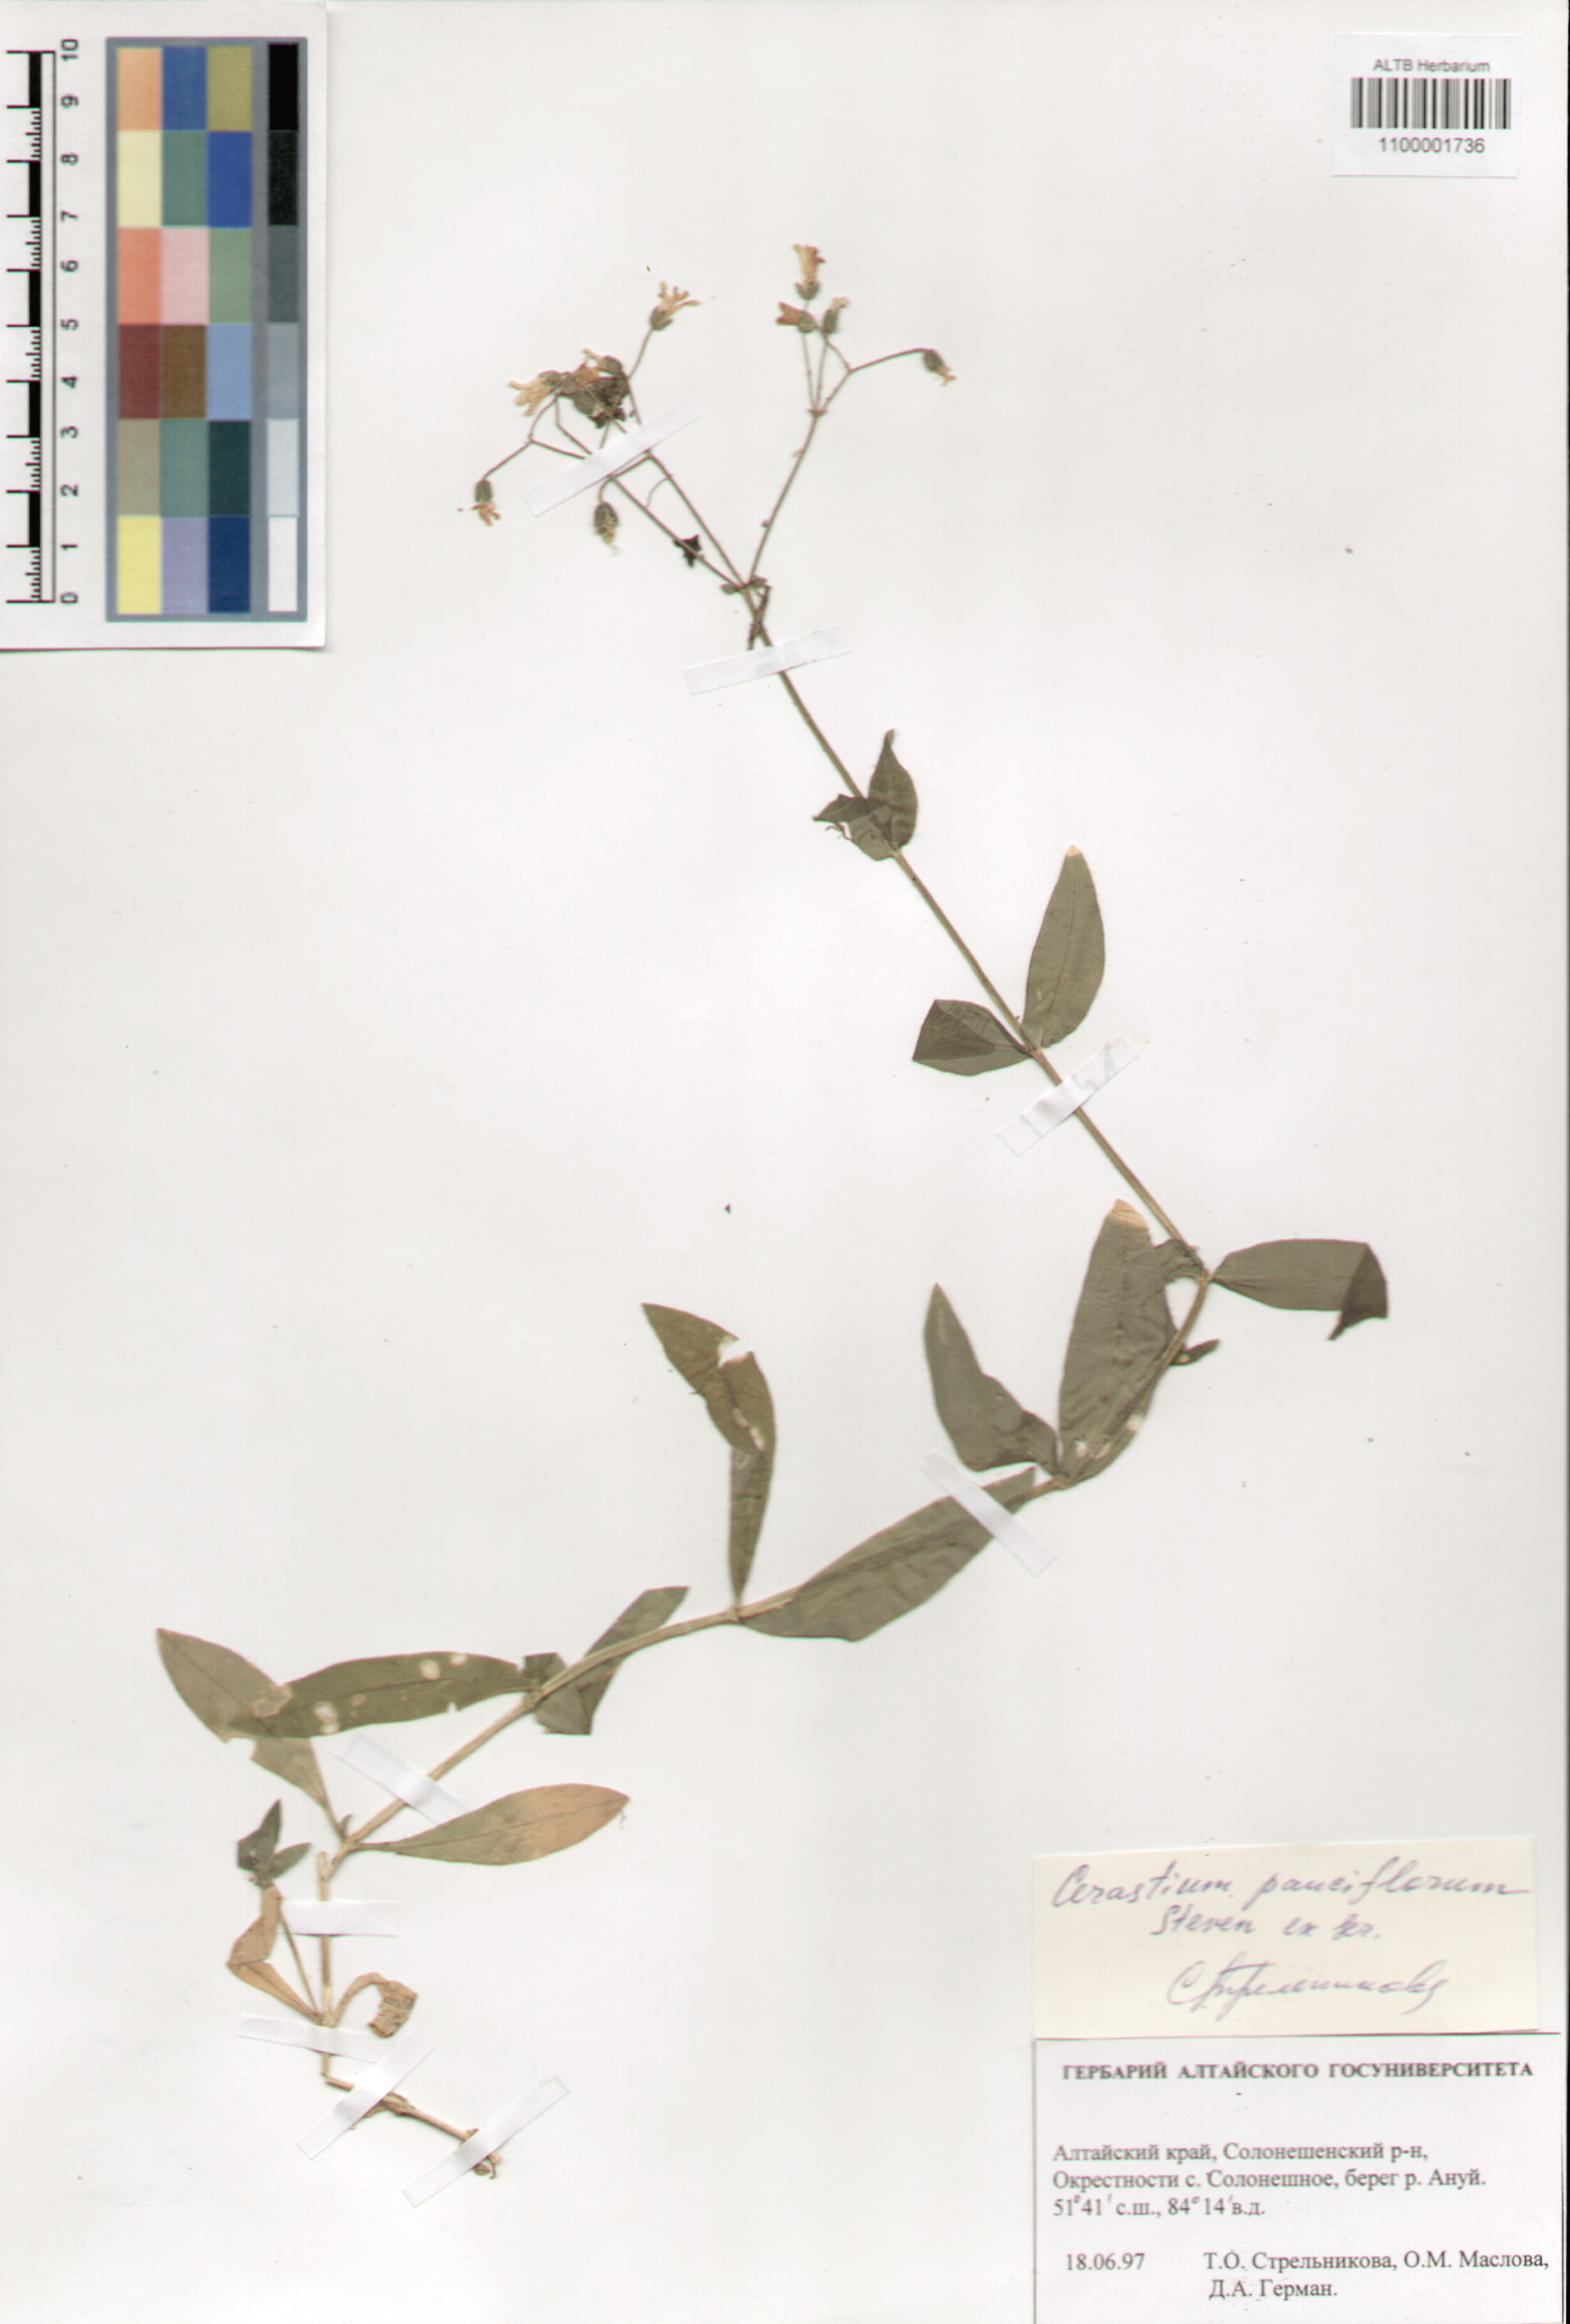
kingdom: Plantae
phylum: Tracheophyta
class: Magnoliopsida
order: Caryophyllales
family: Caryophyllaceae
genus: Cerastium
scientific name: Cerastium pauciflorum
